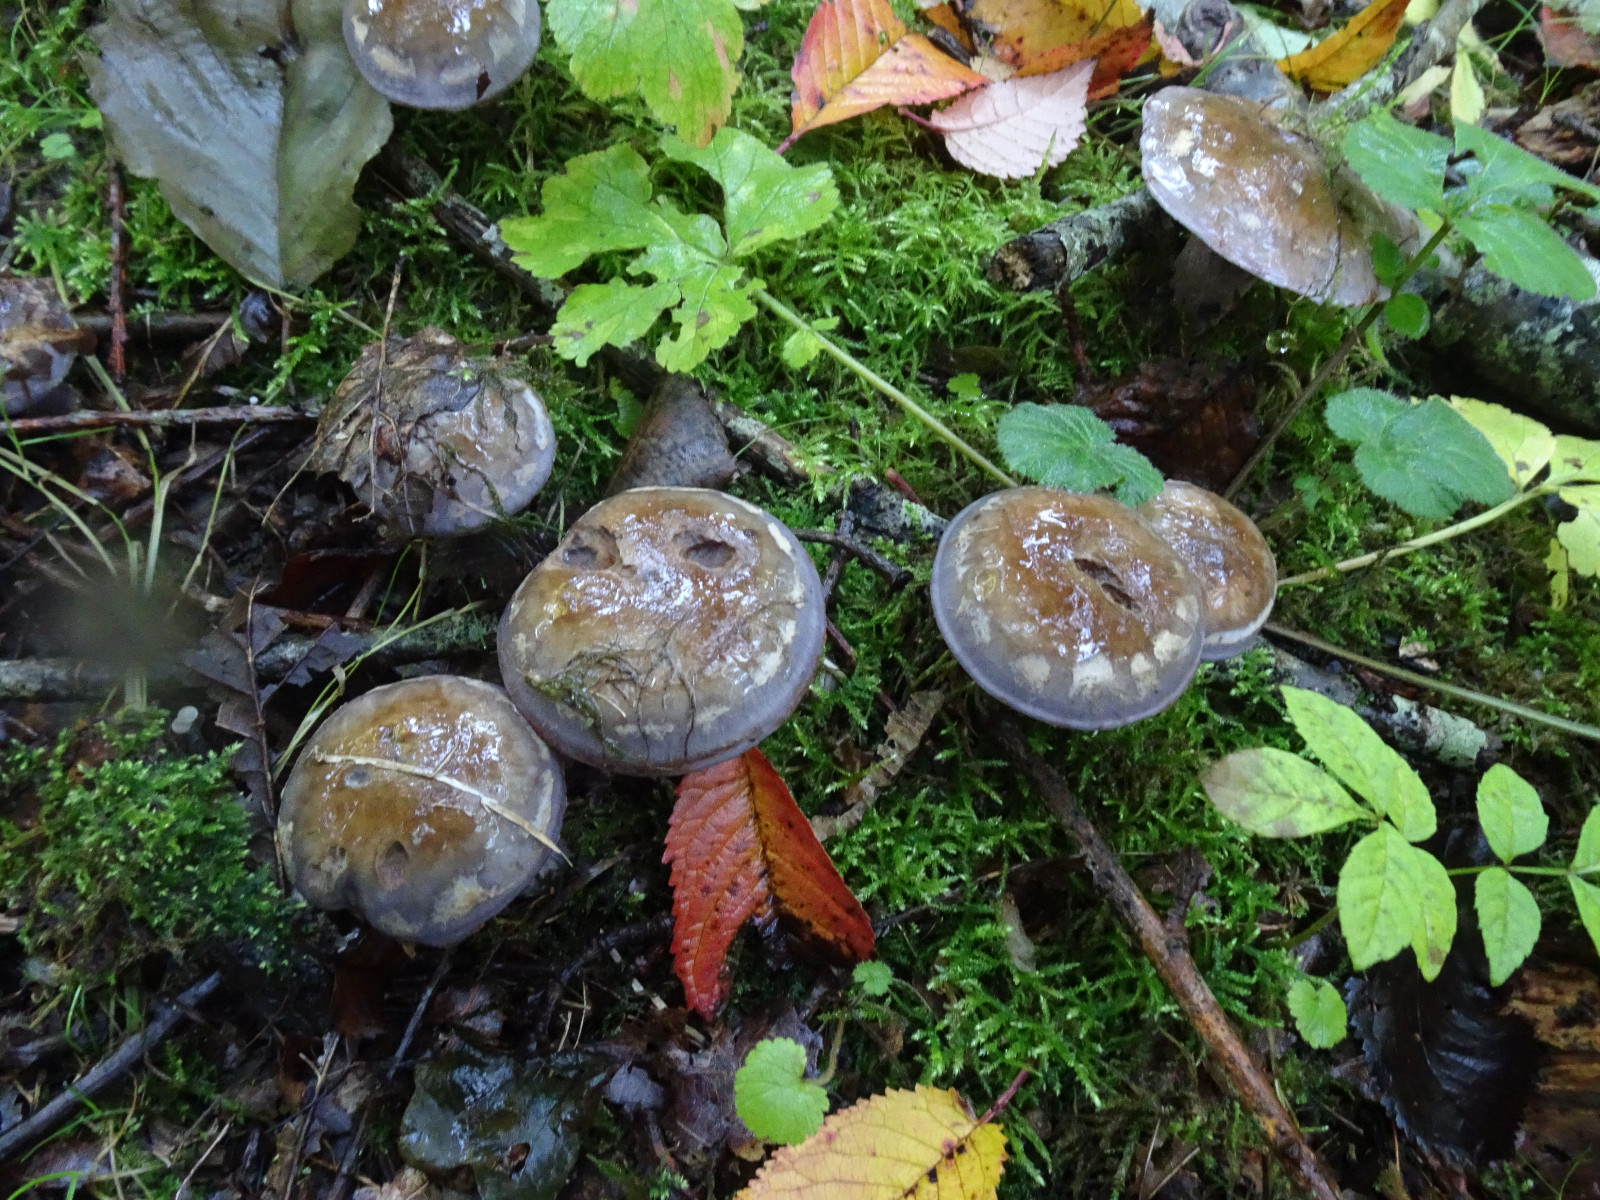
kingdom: Fungi
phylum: Basidiomycota
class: Agaricomycetes
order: Agaricales
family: Cortinariaceae
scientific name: Cortinariaceae
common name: slørhatfamilien
